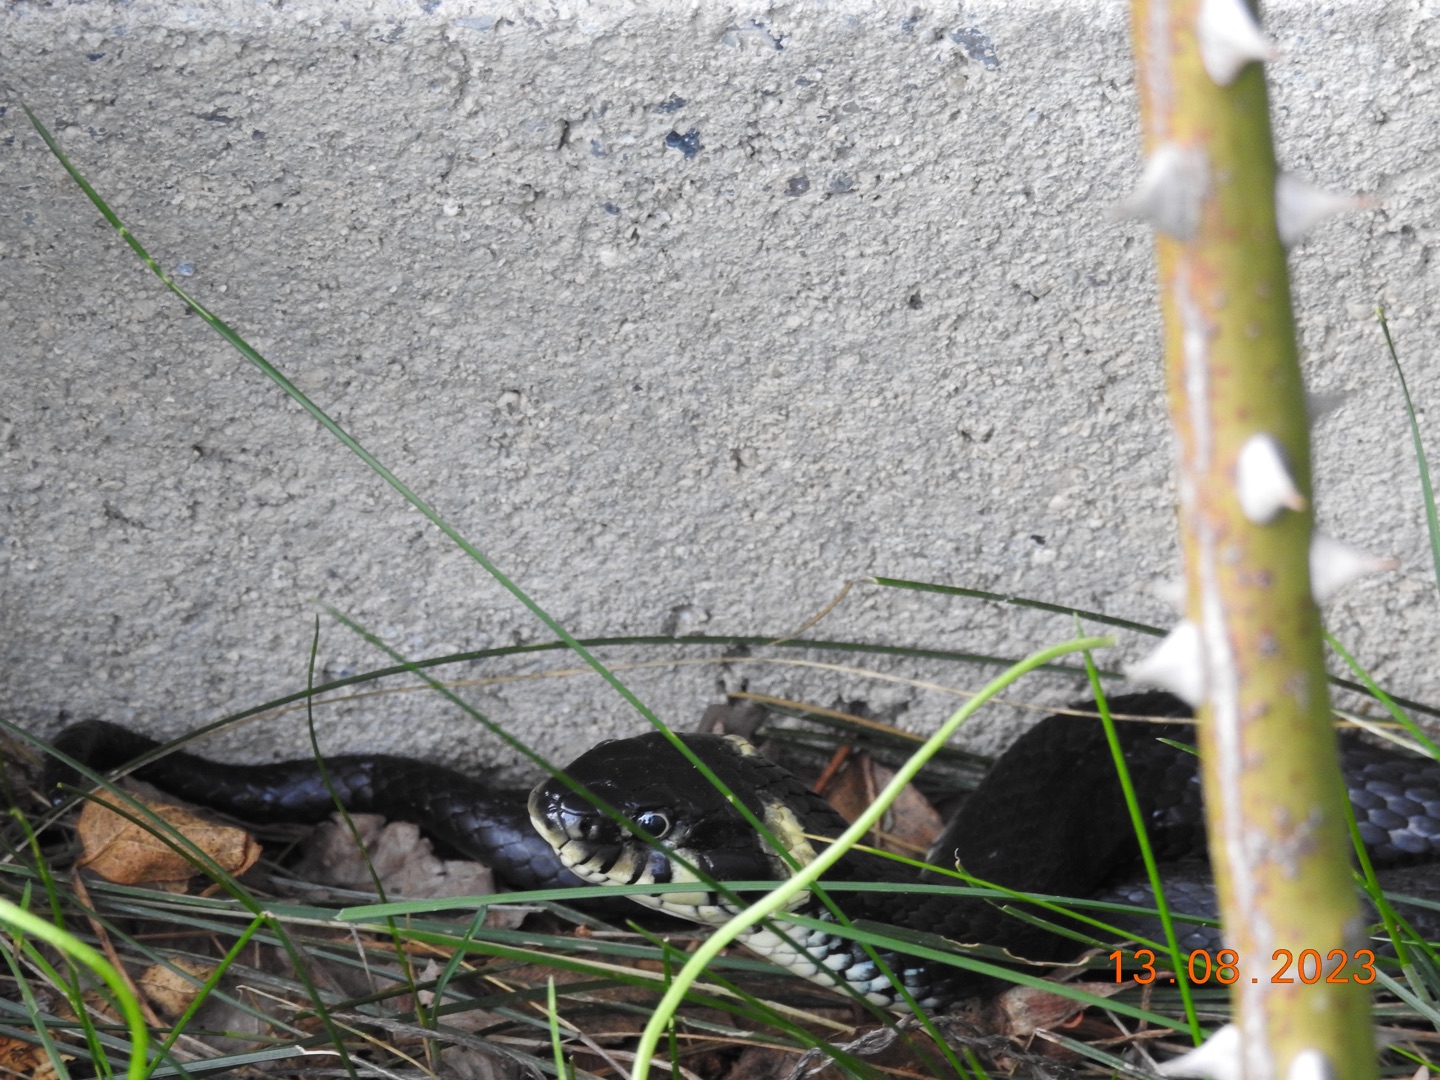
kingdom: Animalia
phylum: Chordata
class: Squamata
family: Colubridae
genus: Natrix
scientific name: Natrix natrix
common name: Snog
